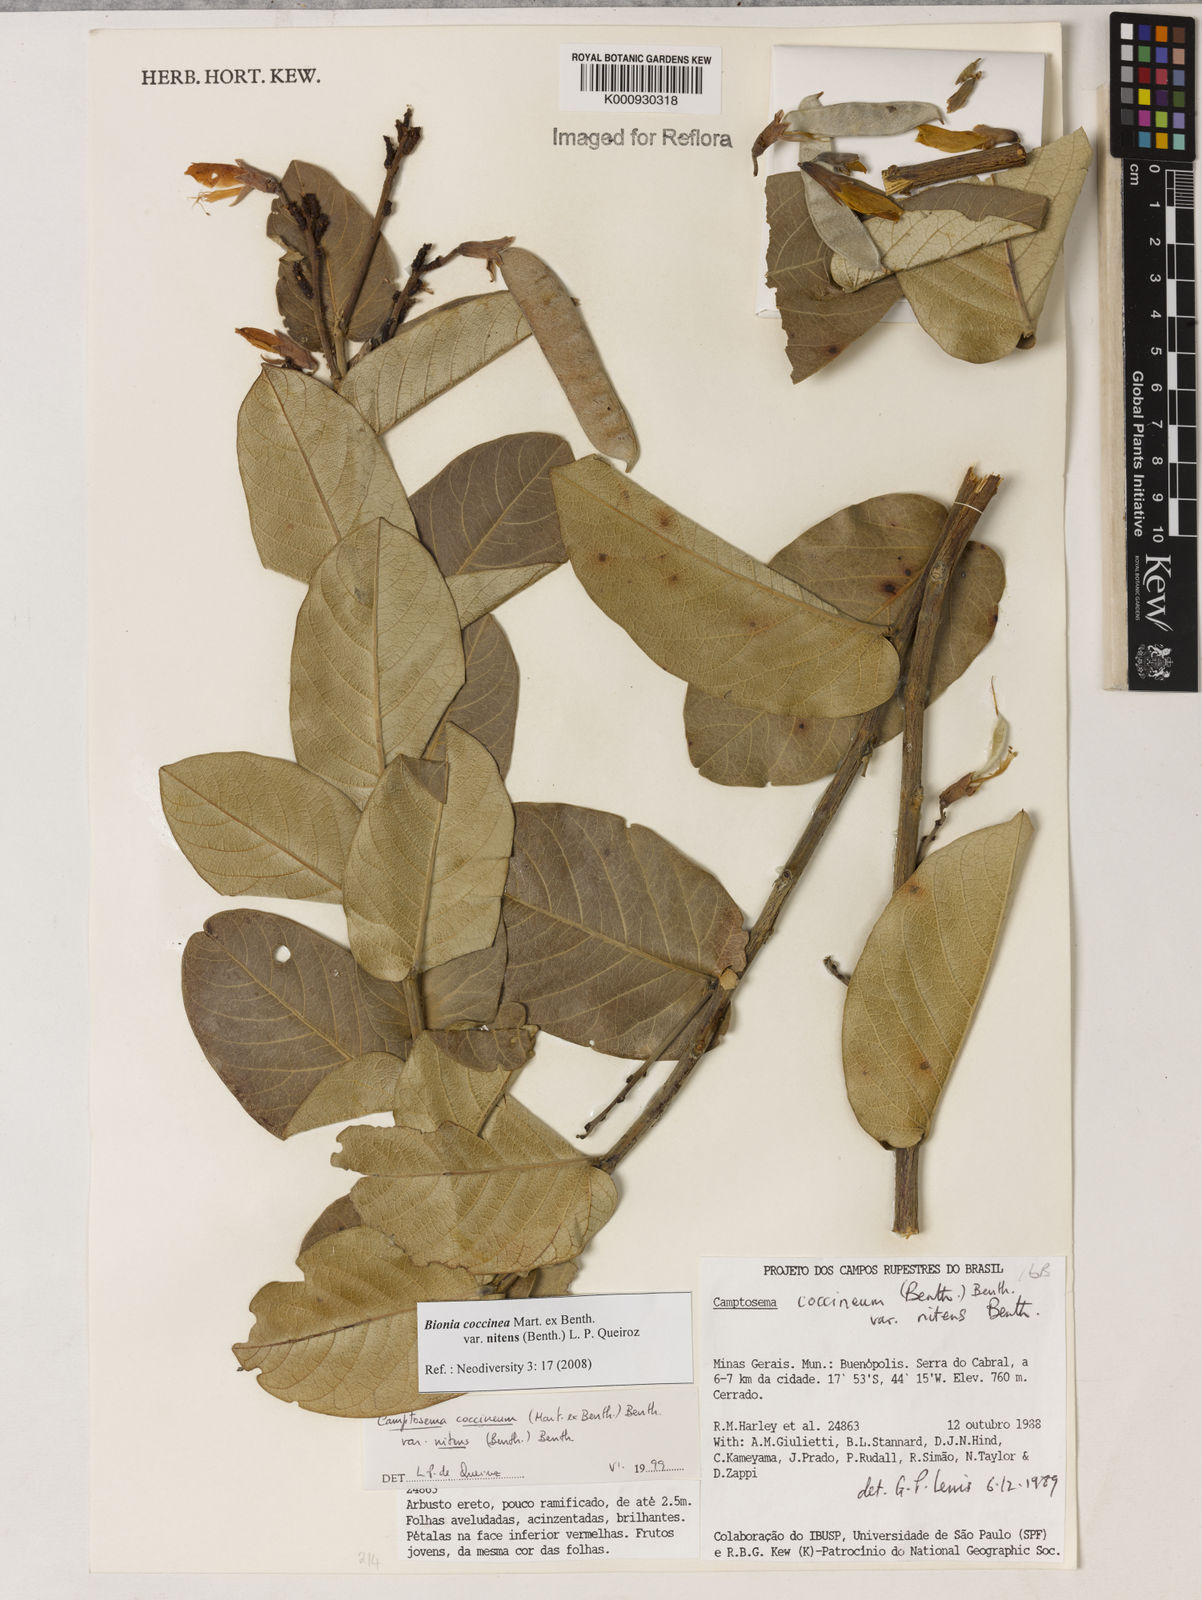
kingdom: Plantae
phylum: Tracheophyta
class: Magnoliopsida
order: Fabales
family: Fabaceae
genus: Camptosema
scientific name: Camptosema coccineum
